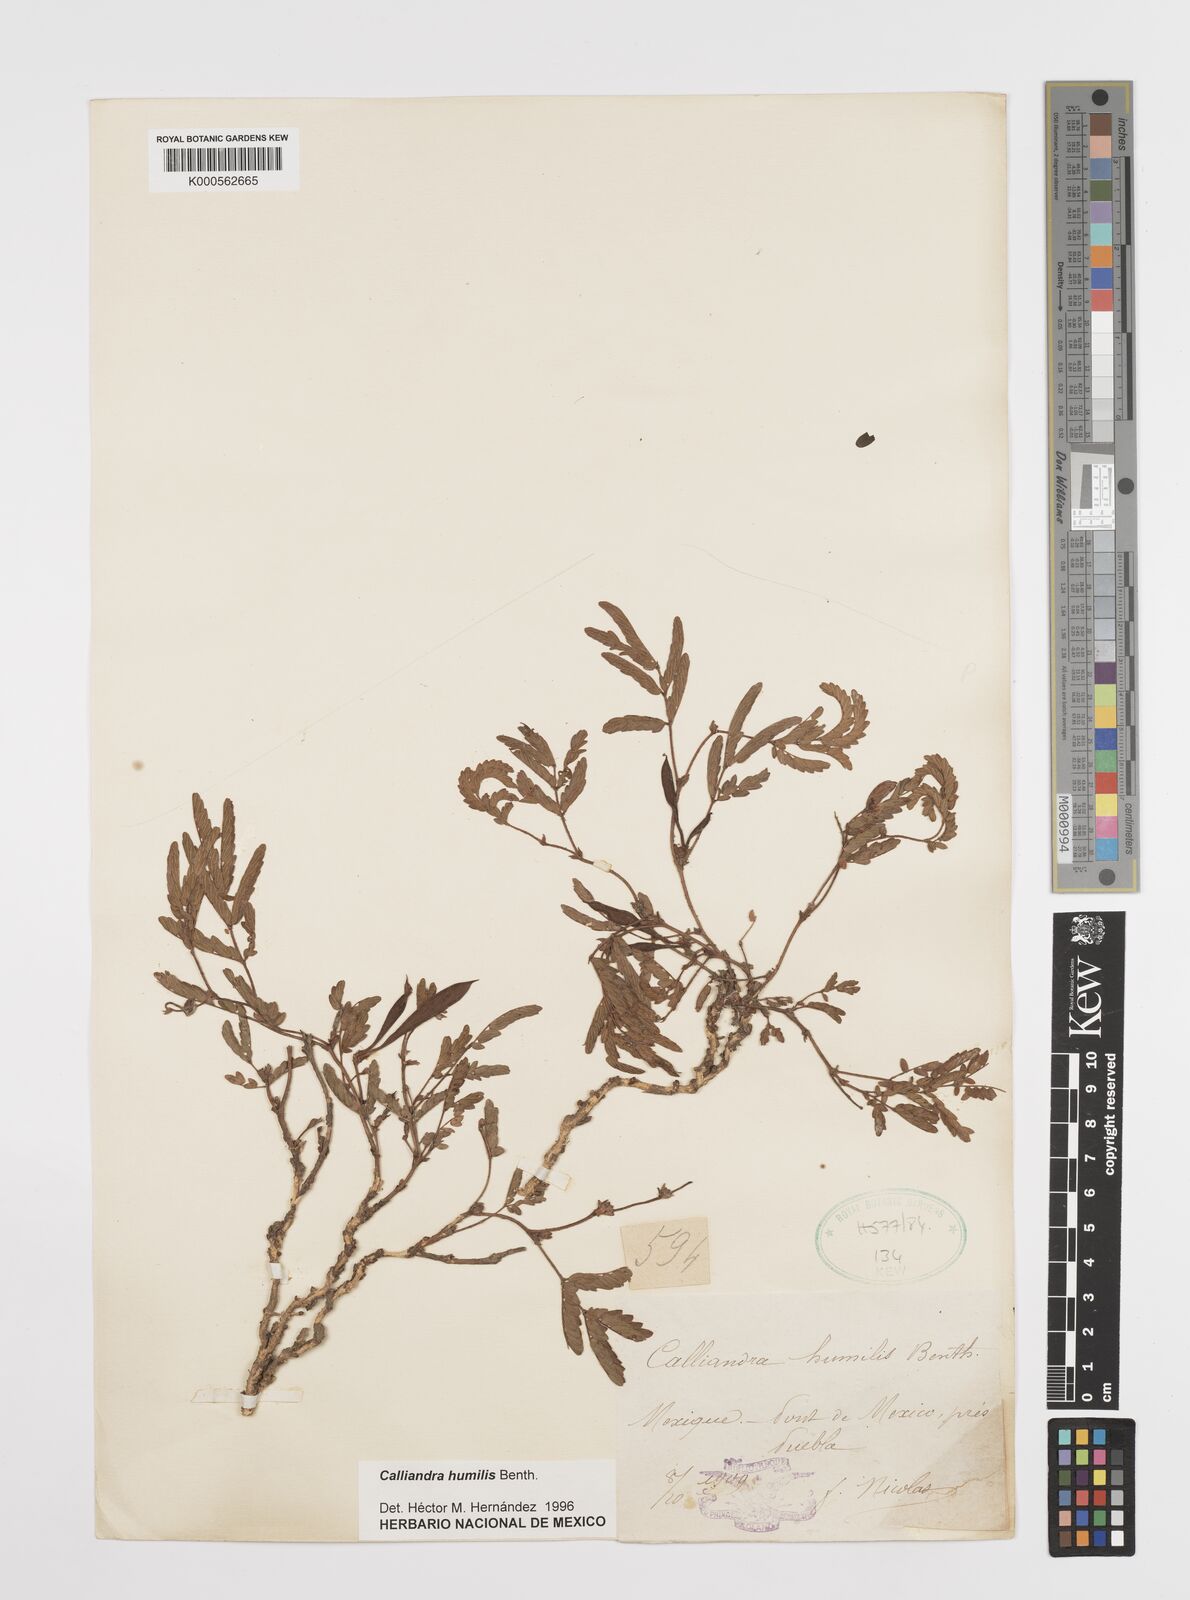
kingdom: Plantae
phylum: Tracheophyta
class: Magnoliopsida
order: Fabales
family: Fabaceae
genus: Calliandra
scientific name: Calliandra humilis
